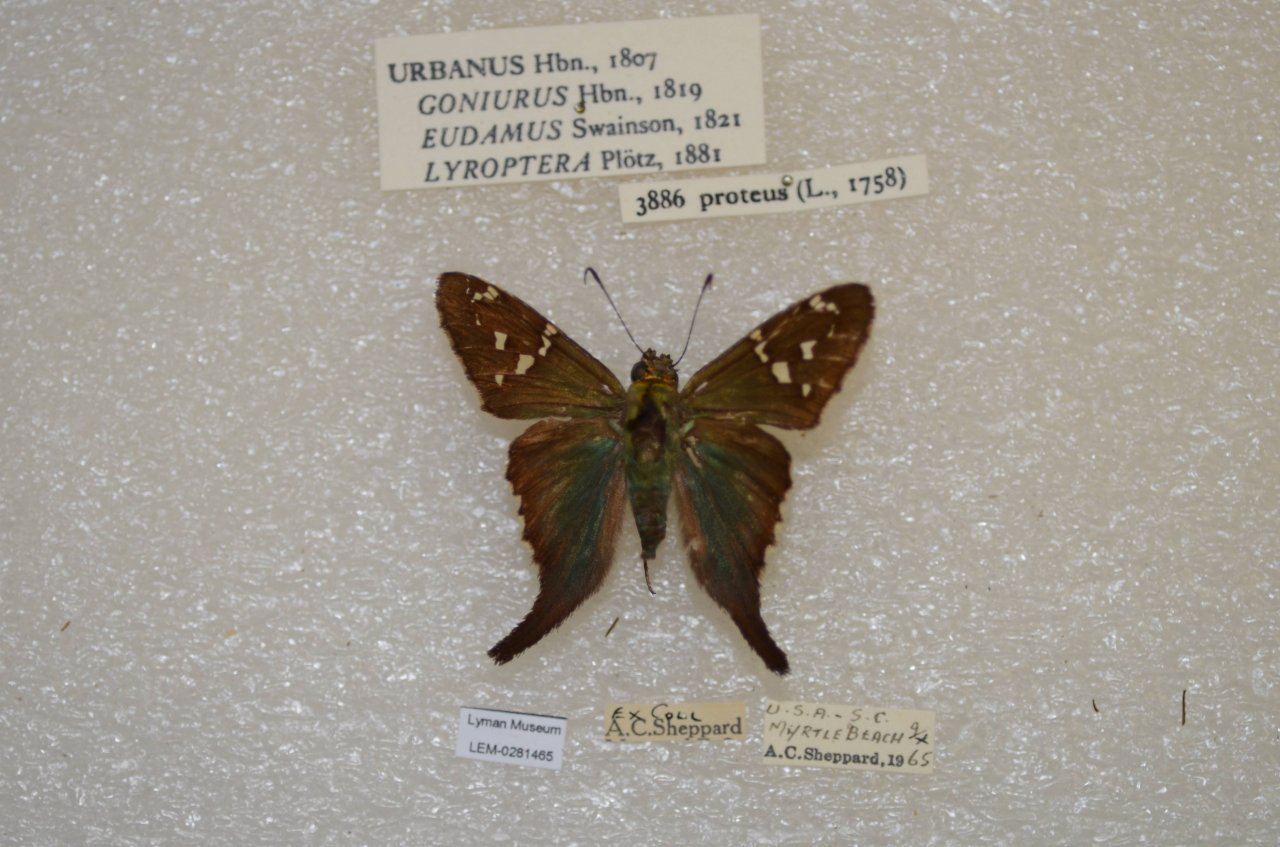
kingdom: Animalia
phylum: Arthropoda
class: Insecta
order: Lepidoptera
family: Hesperiidae
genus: Urbanus
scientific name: Urbanus proteus
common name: Long-tailed Skipper
